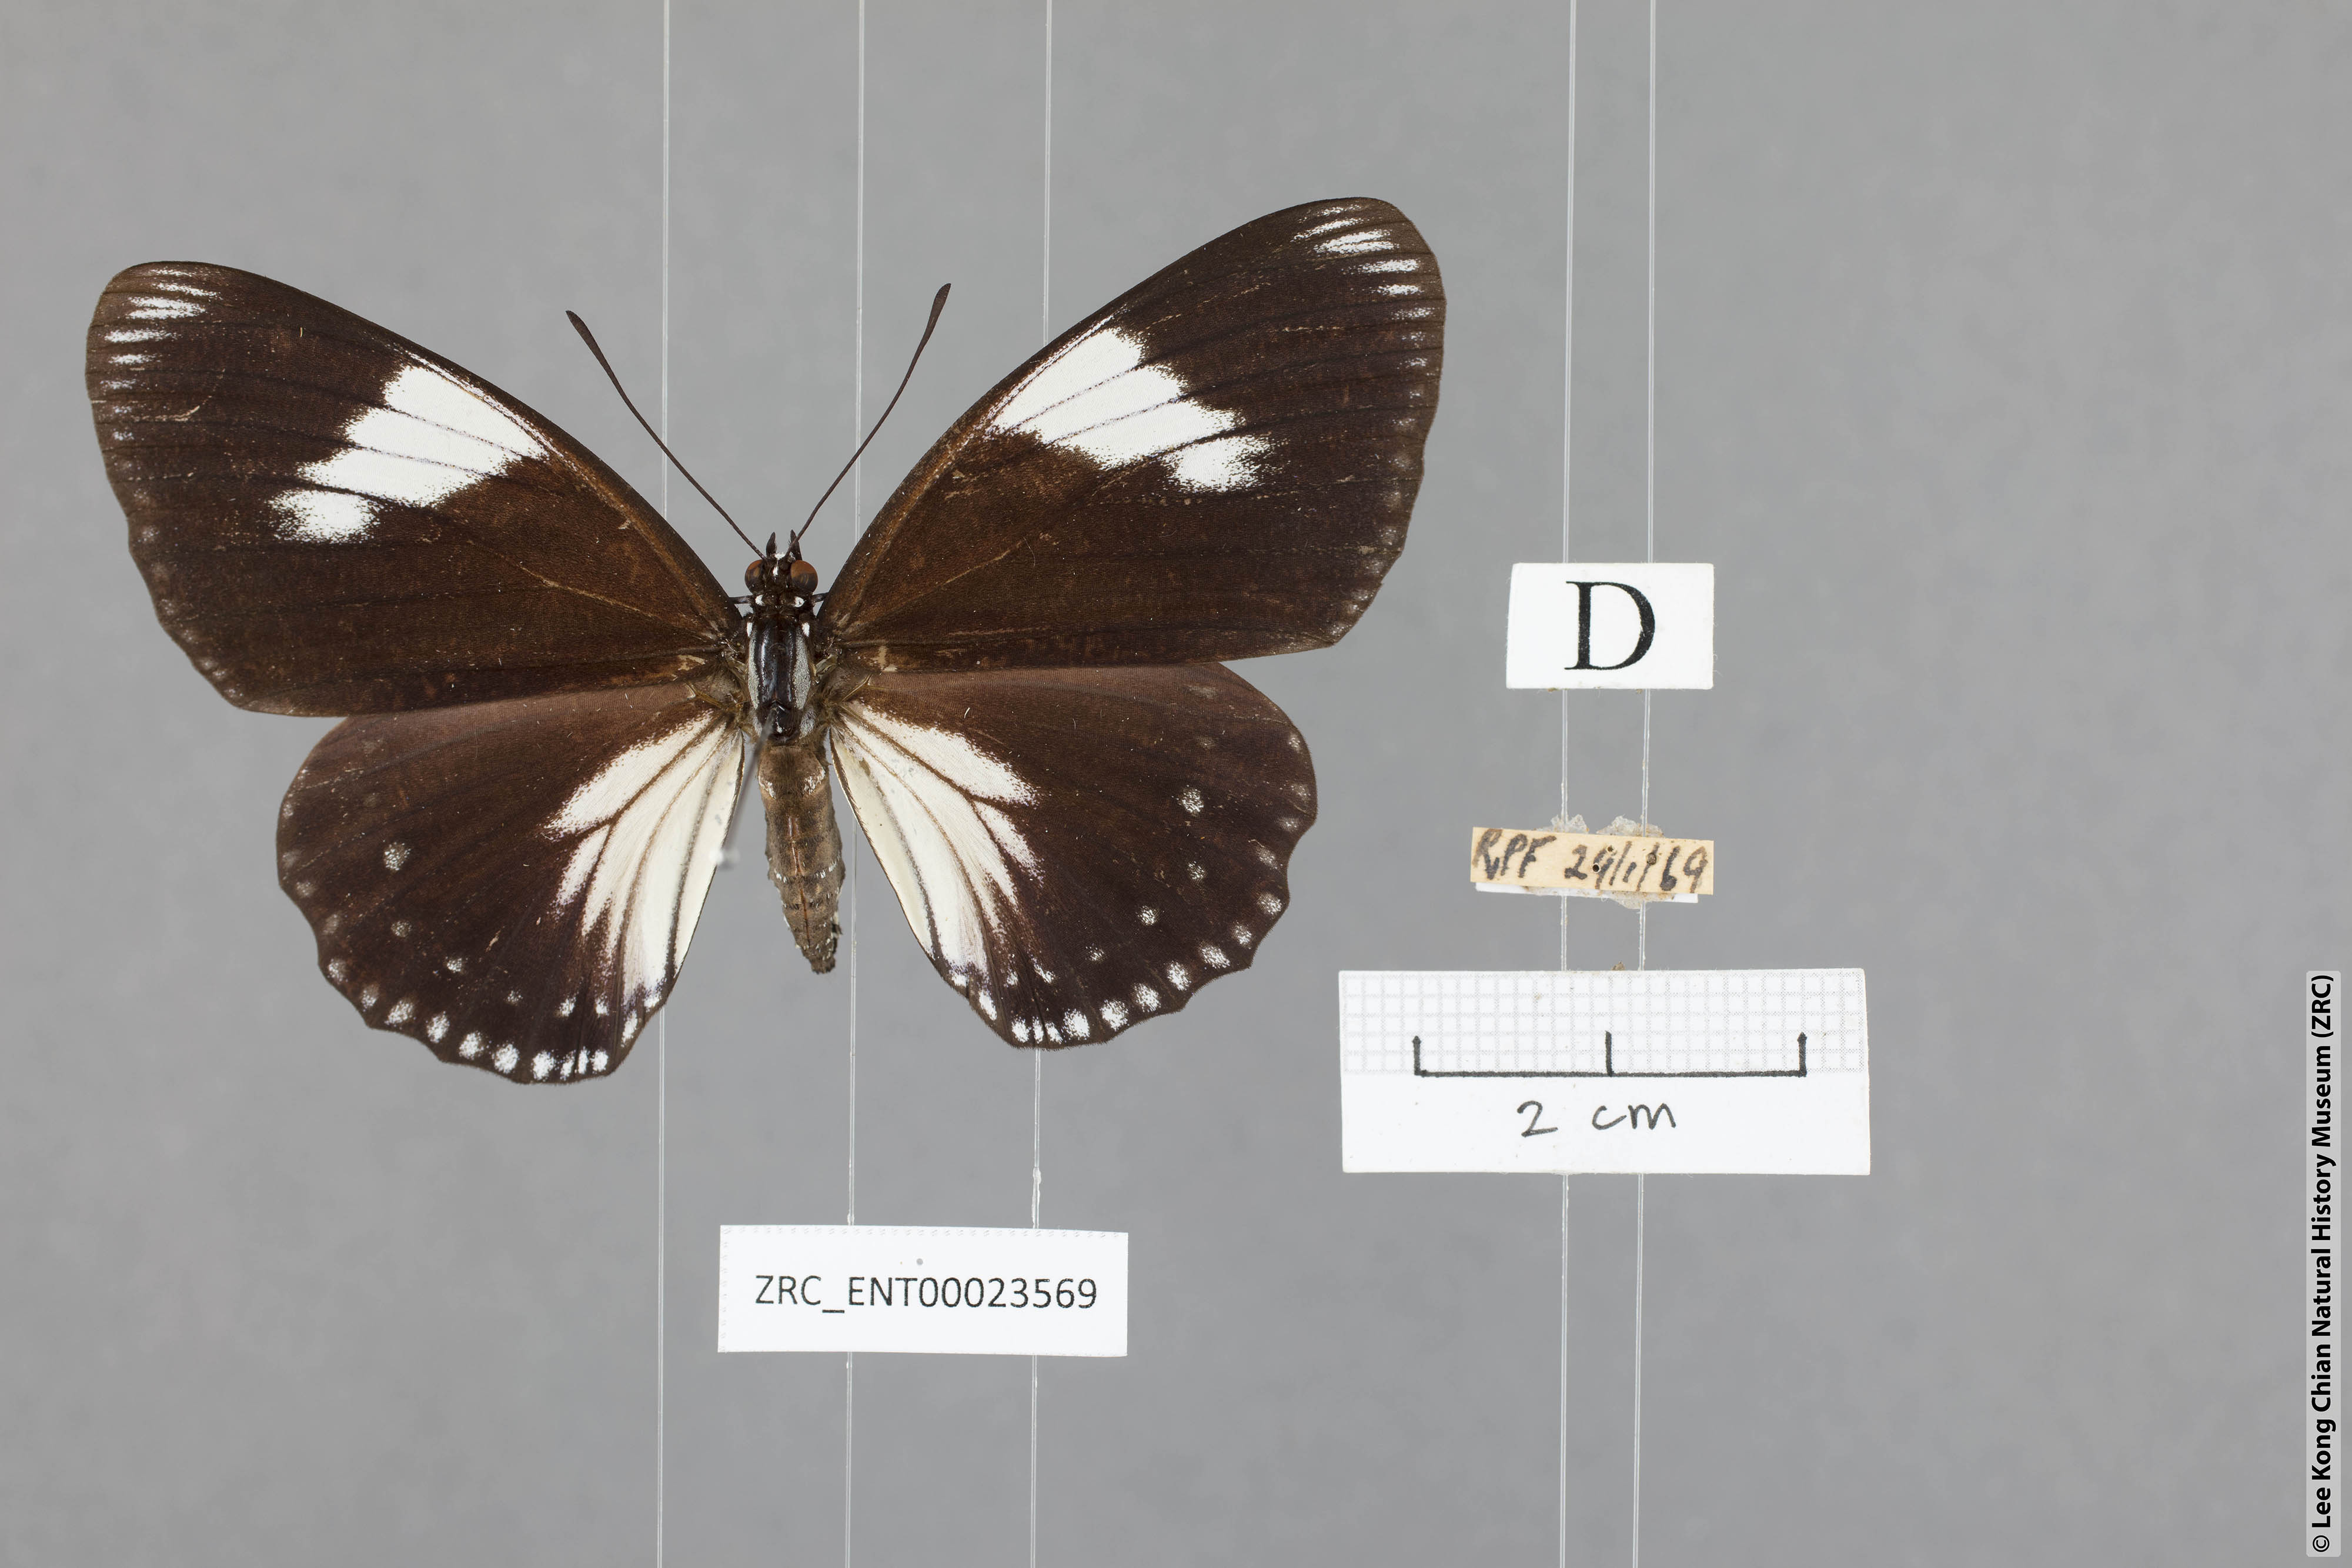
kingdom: Animalia
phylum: Arthropoda
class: Insecta
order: Lepidoptera
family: Nymphalidae
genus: Euripus
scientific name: Euripus nyctelius
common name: Courtesan
